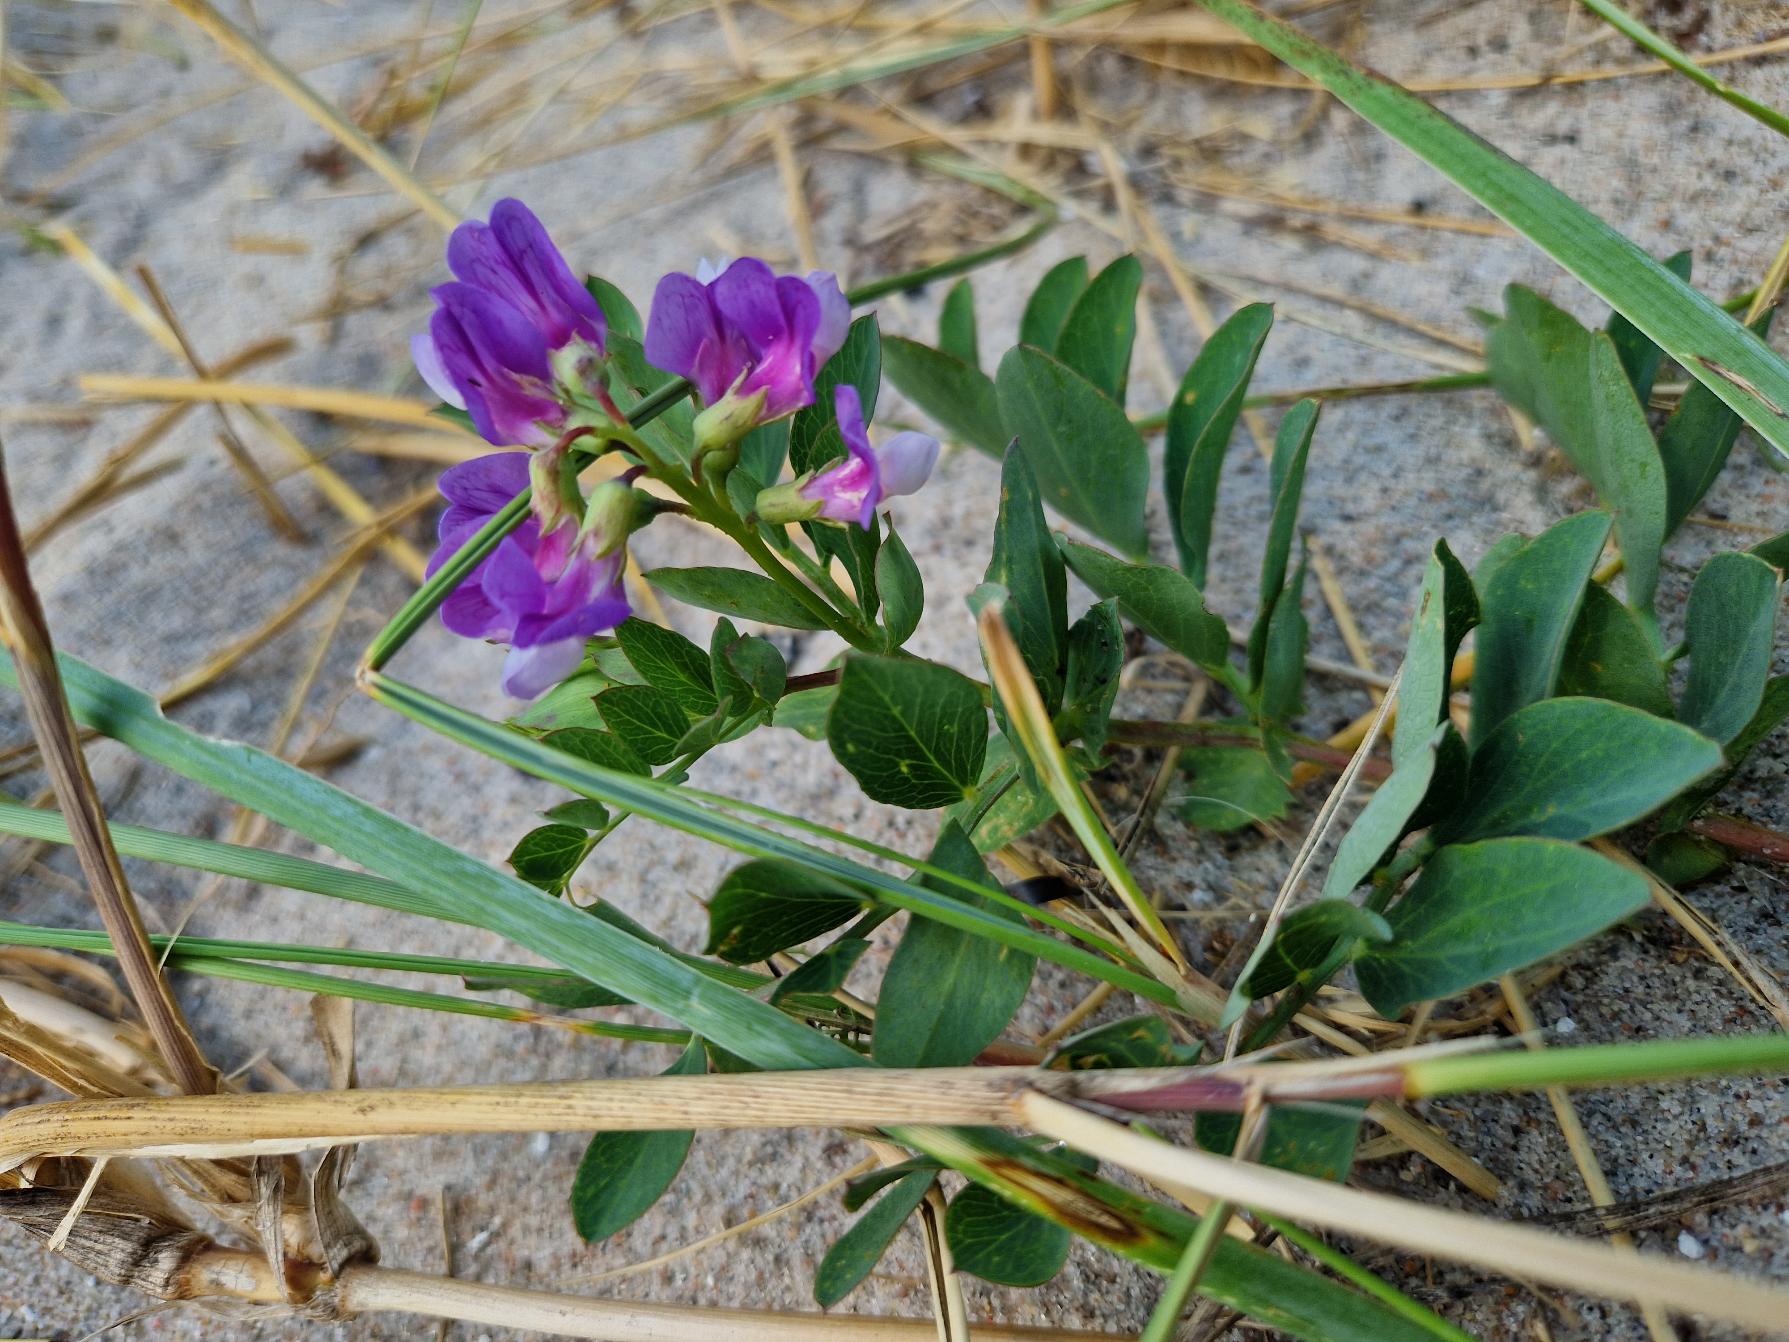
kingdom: Plantae
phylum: Tracheophyta
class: Magnoliopsida
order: Fabales
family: Fabaceae
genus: Lathyrus
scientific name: Lathyrus japonicus
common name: Strand-fladbælg
